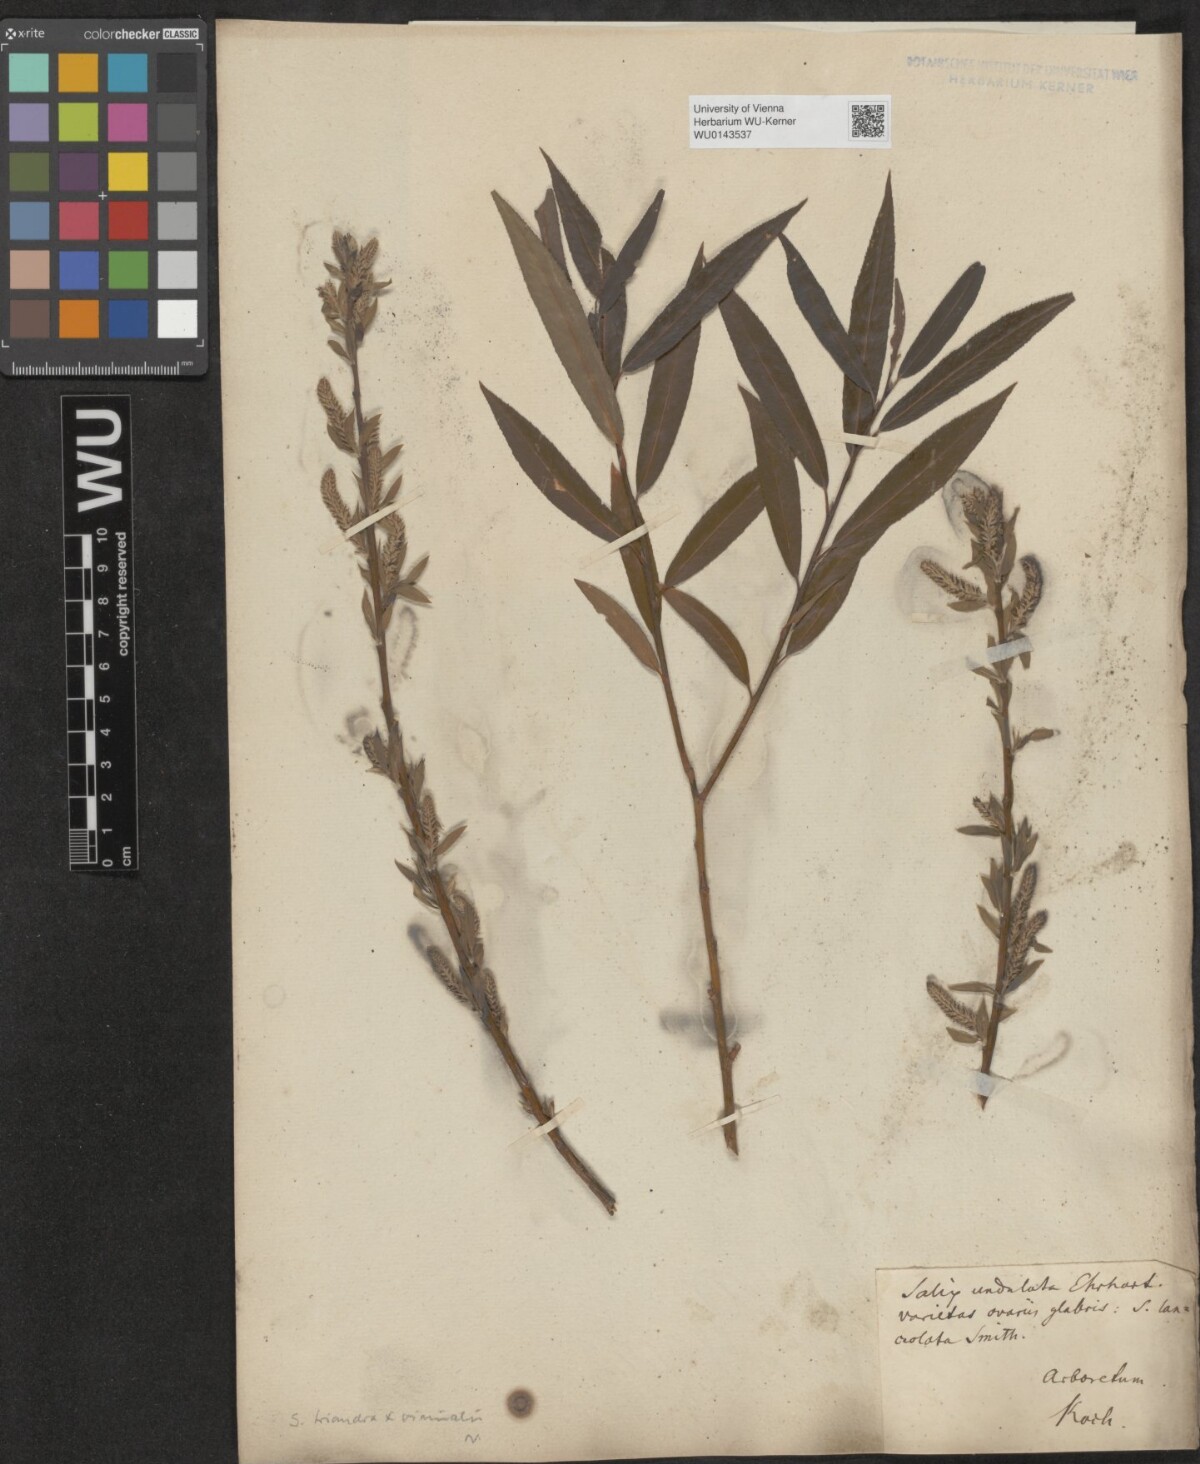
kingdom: Plantae
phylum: Tracheophyta
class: Magnoliopsida
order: Malpighiales
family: Salicaceae
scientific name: Salicaceae
